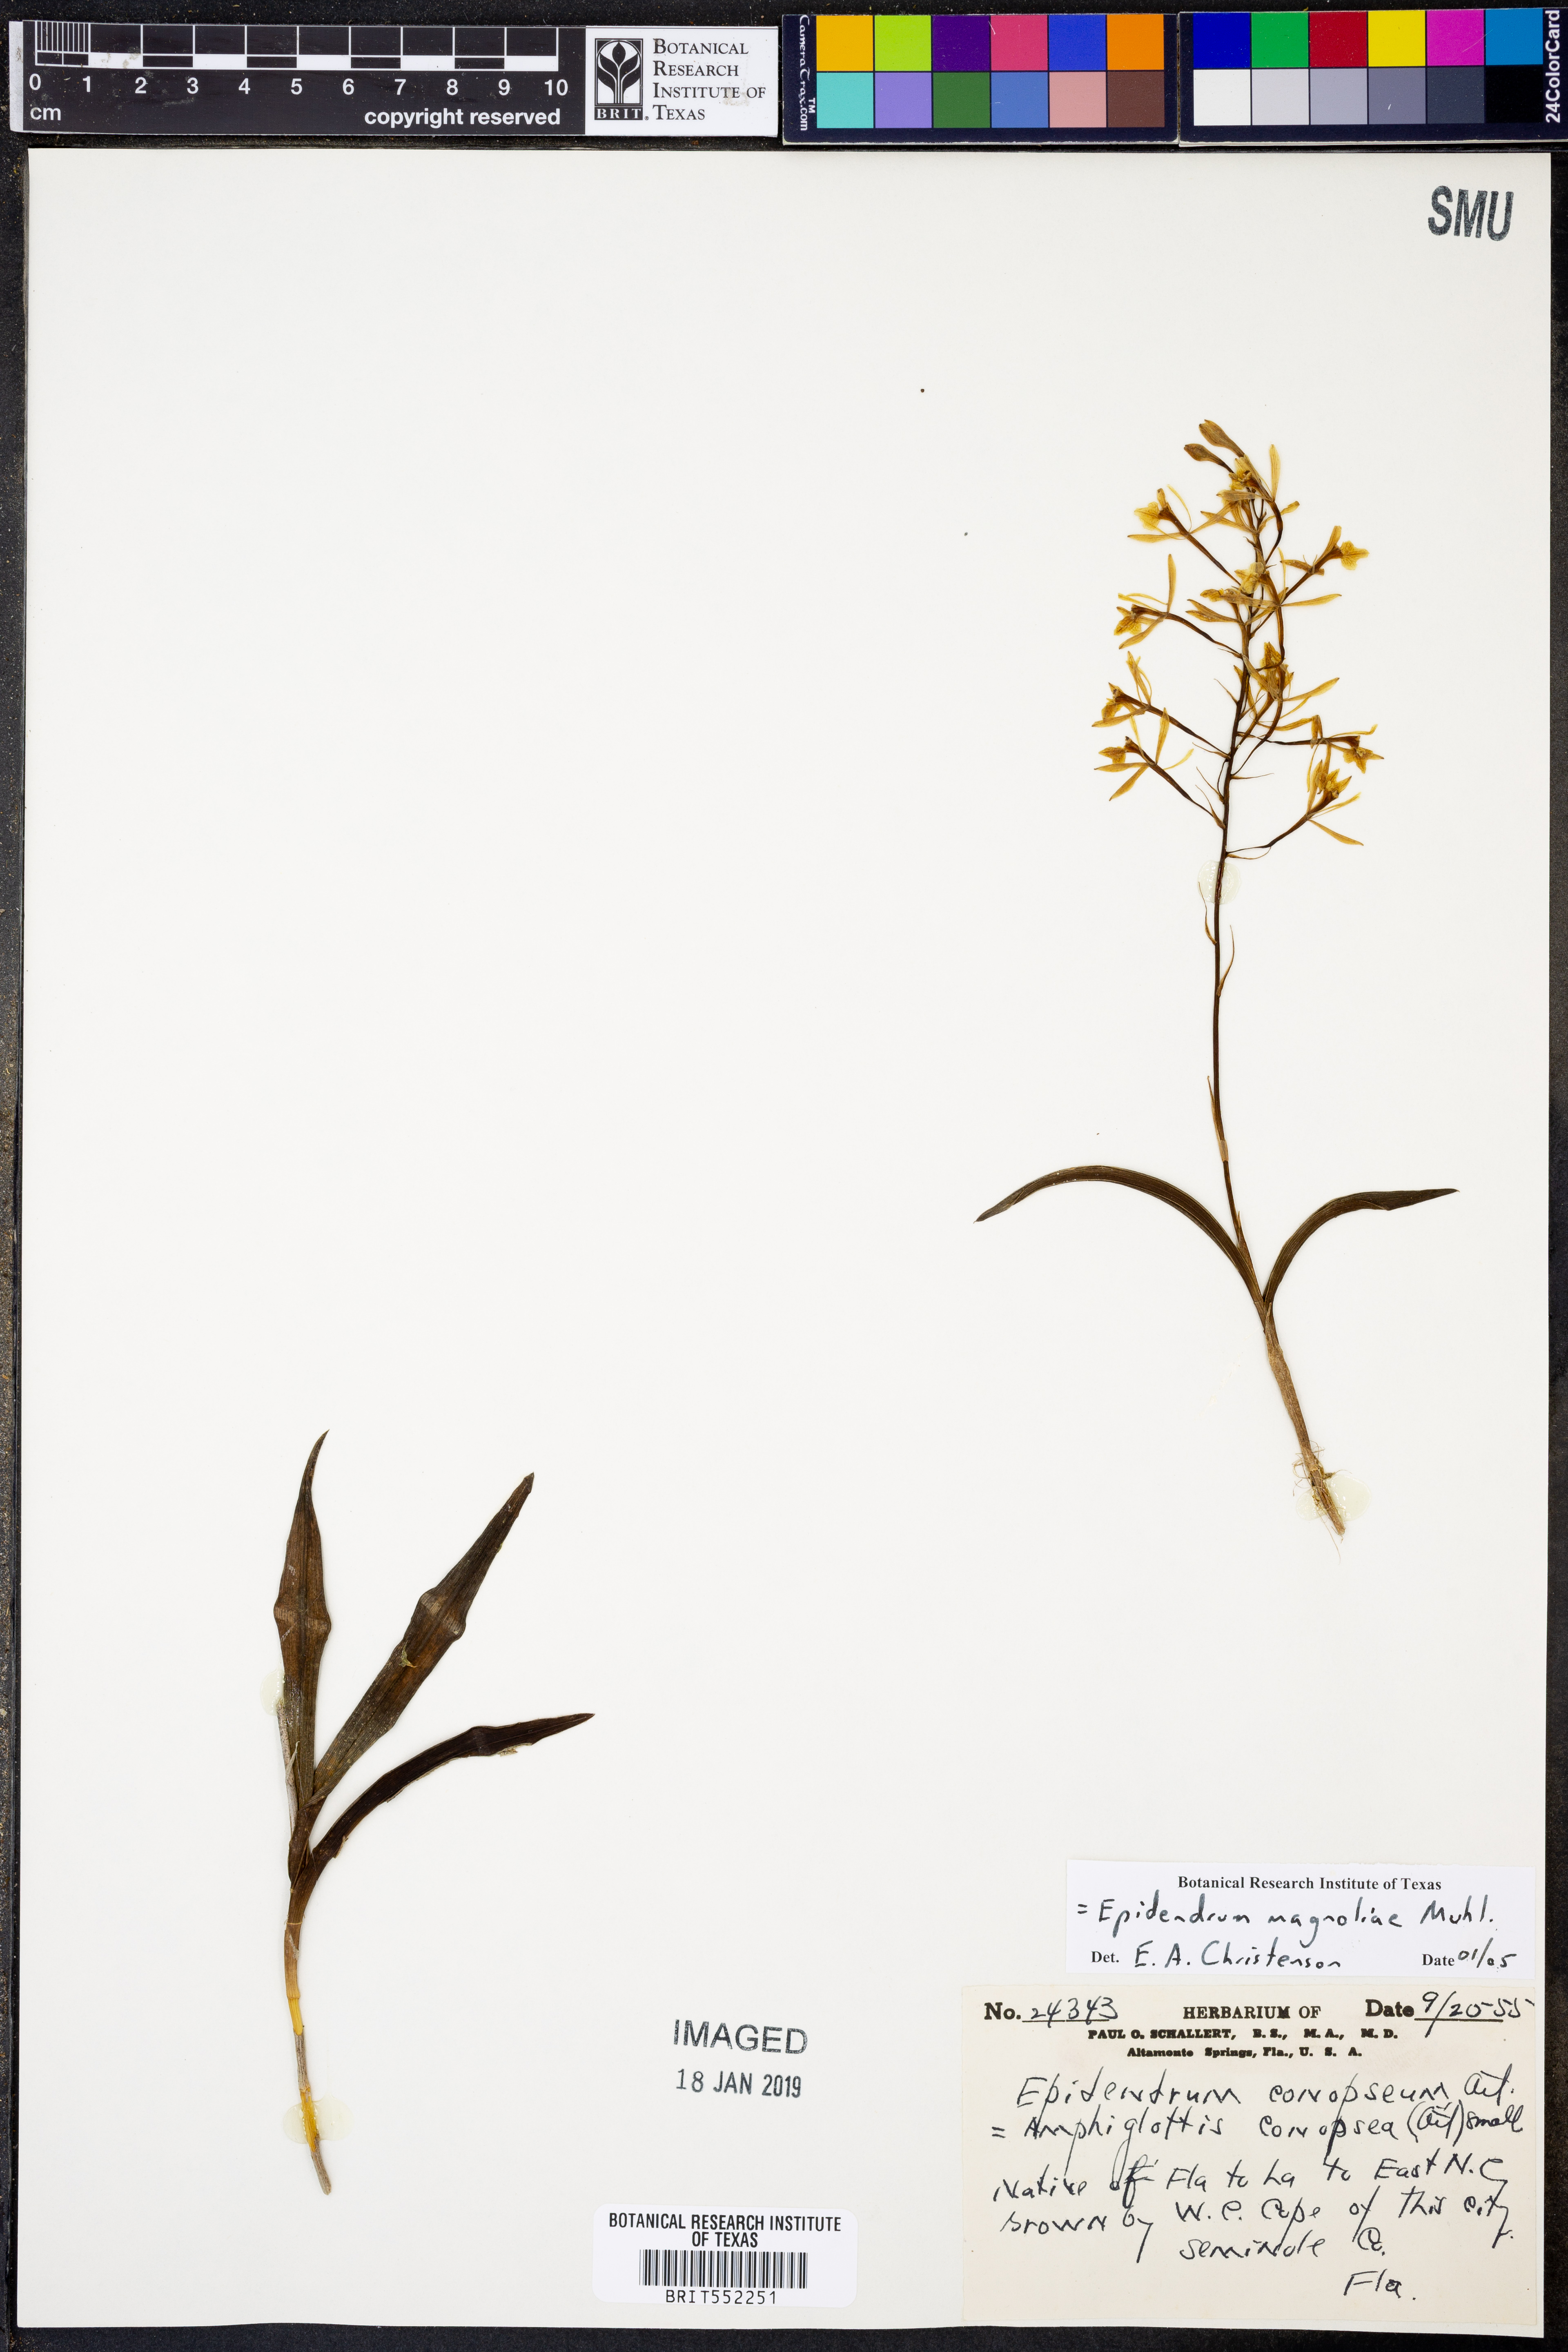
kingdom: Plantae
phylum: Tracheophyta
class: Liliopsida
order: Asparagales
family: Orchidaceae
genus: Epidendrum
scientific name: Epidendrum magnoliae
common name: Green fly orchid
